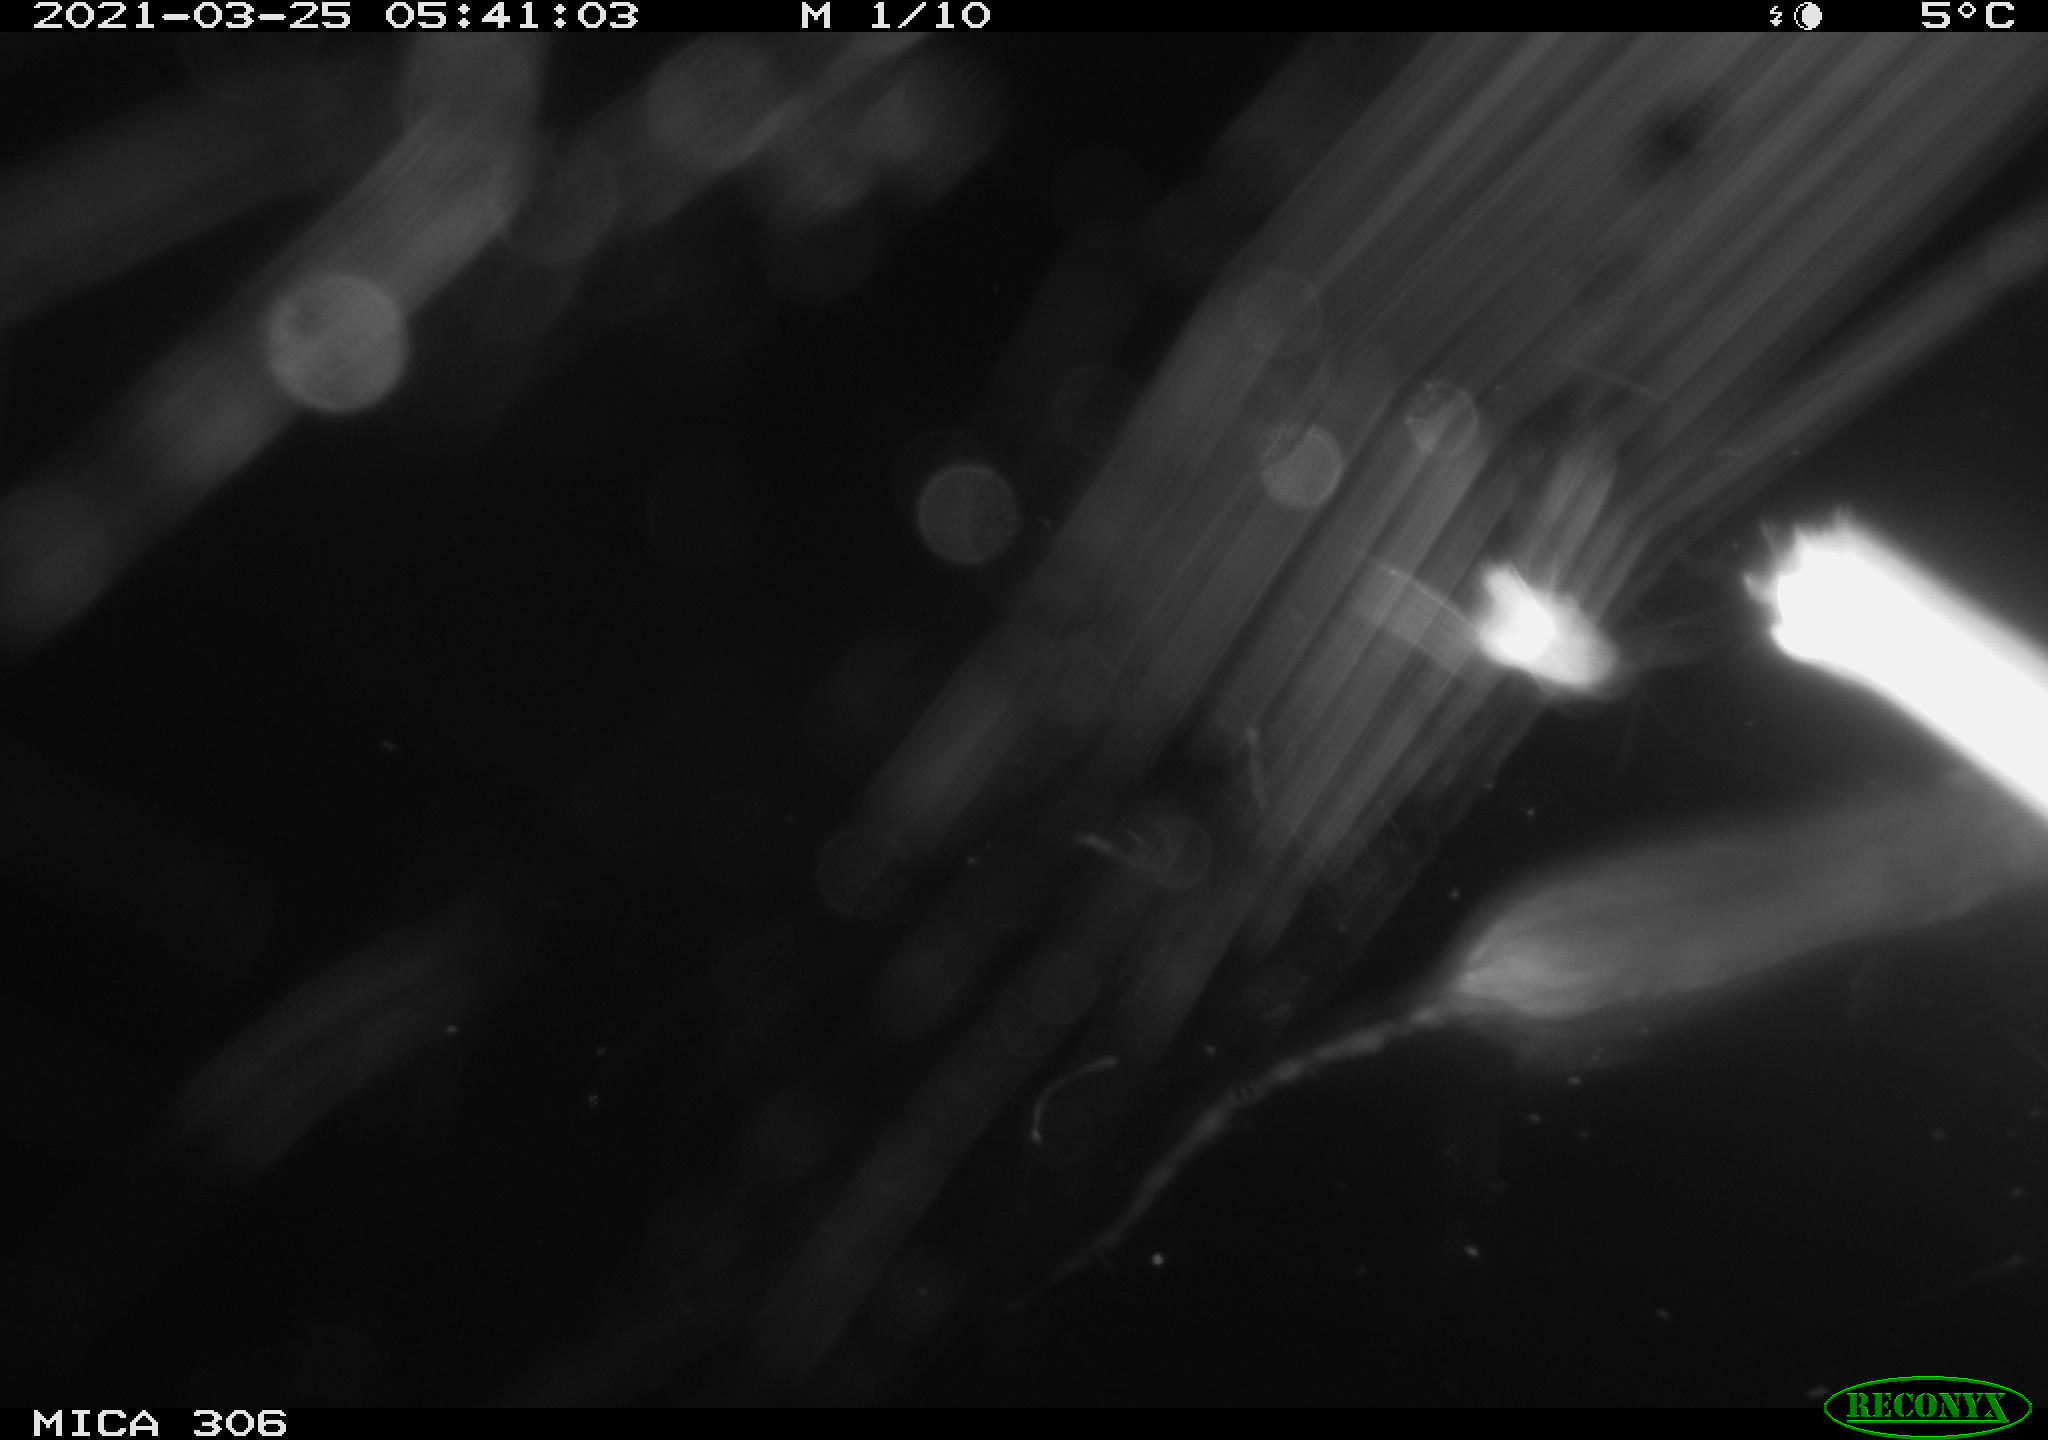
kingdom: Animalia
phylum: Chordata
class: Mammalia
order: Rodentia
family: Cricetidae
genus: Ondatra
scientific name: Ondatra zibethicus
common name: Muskrat
